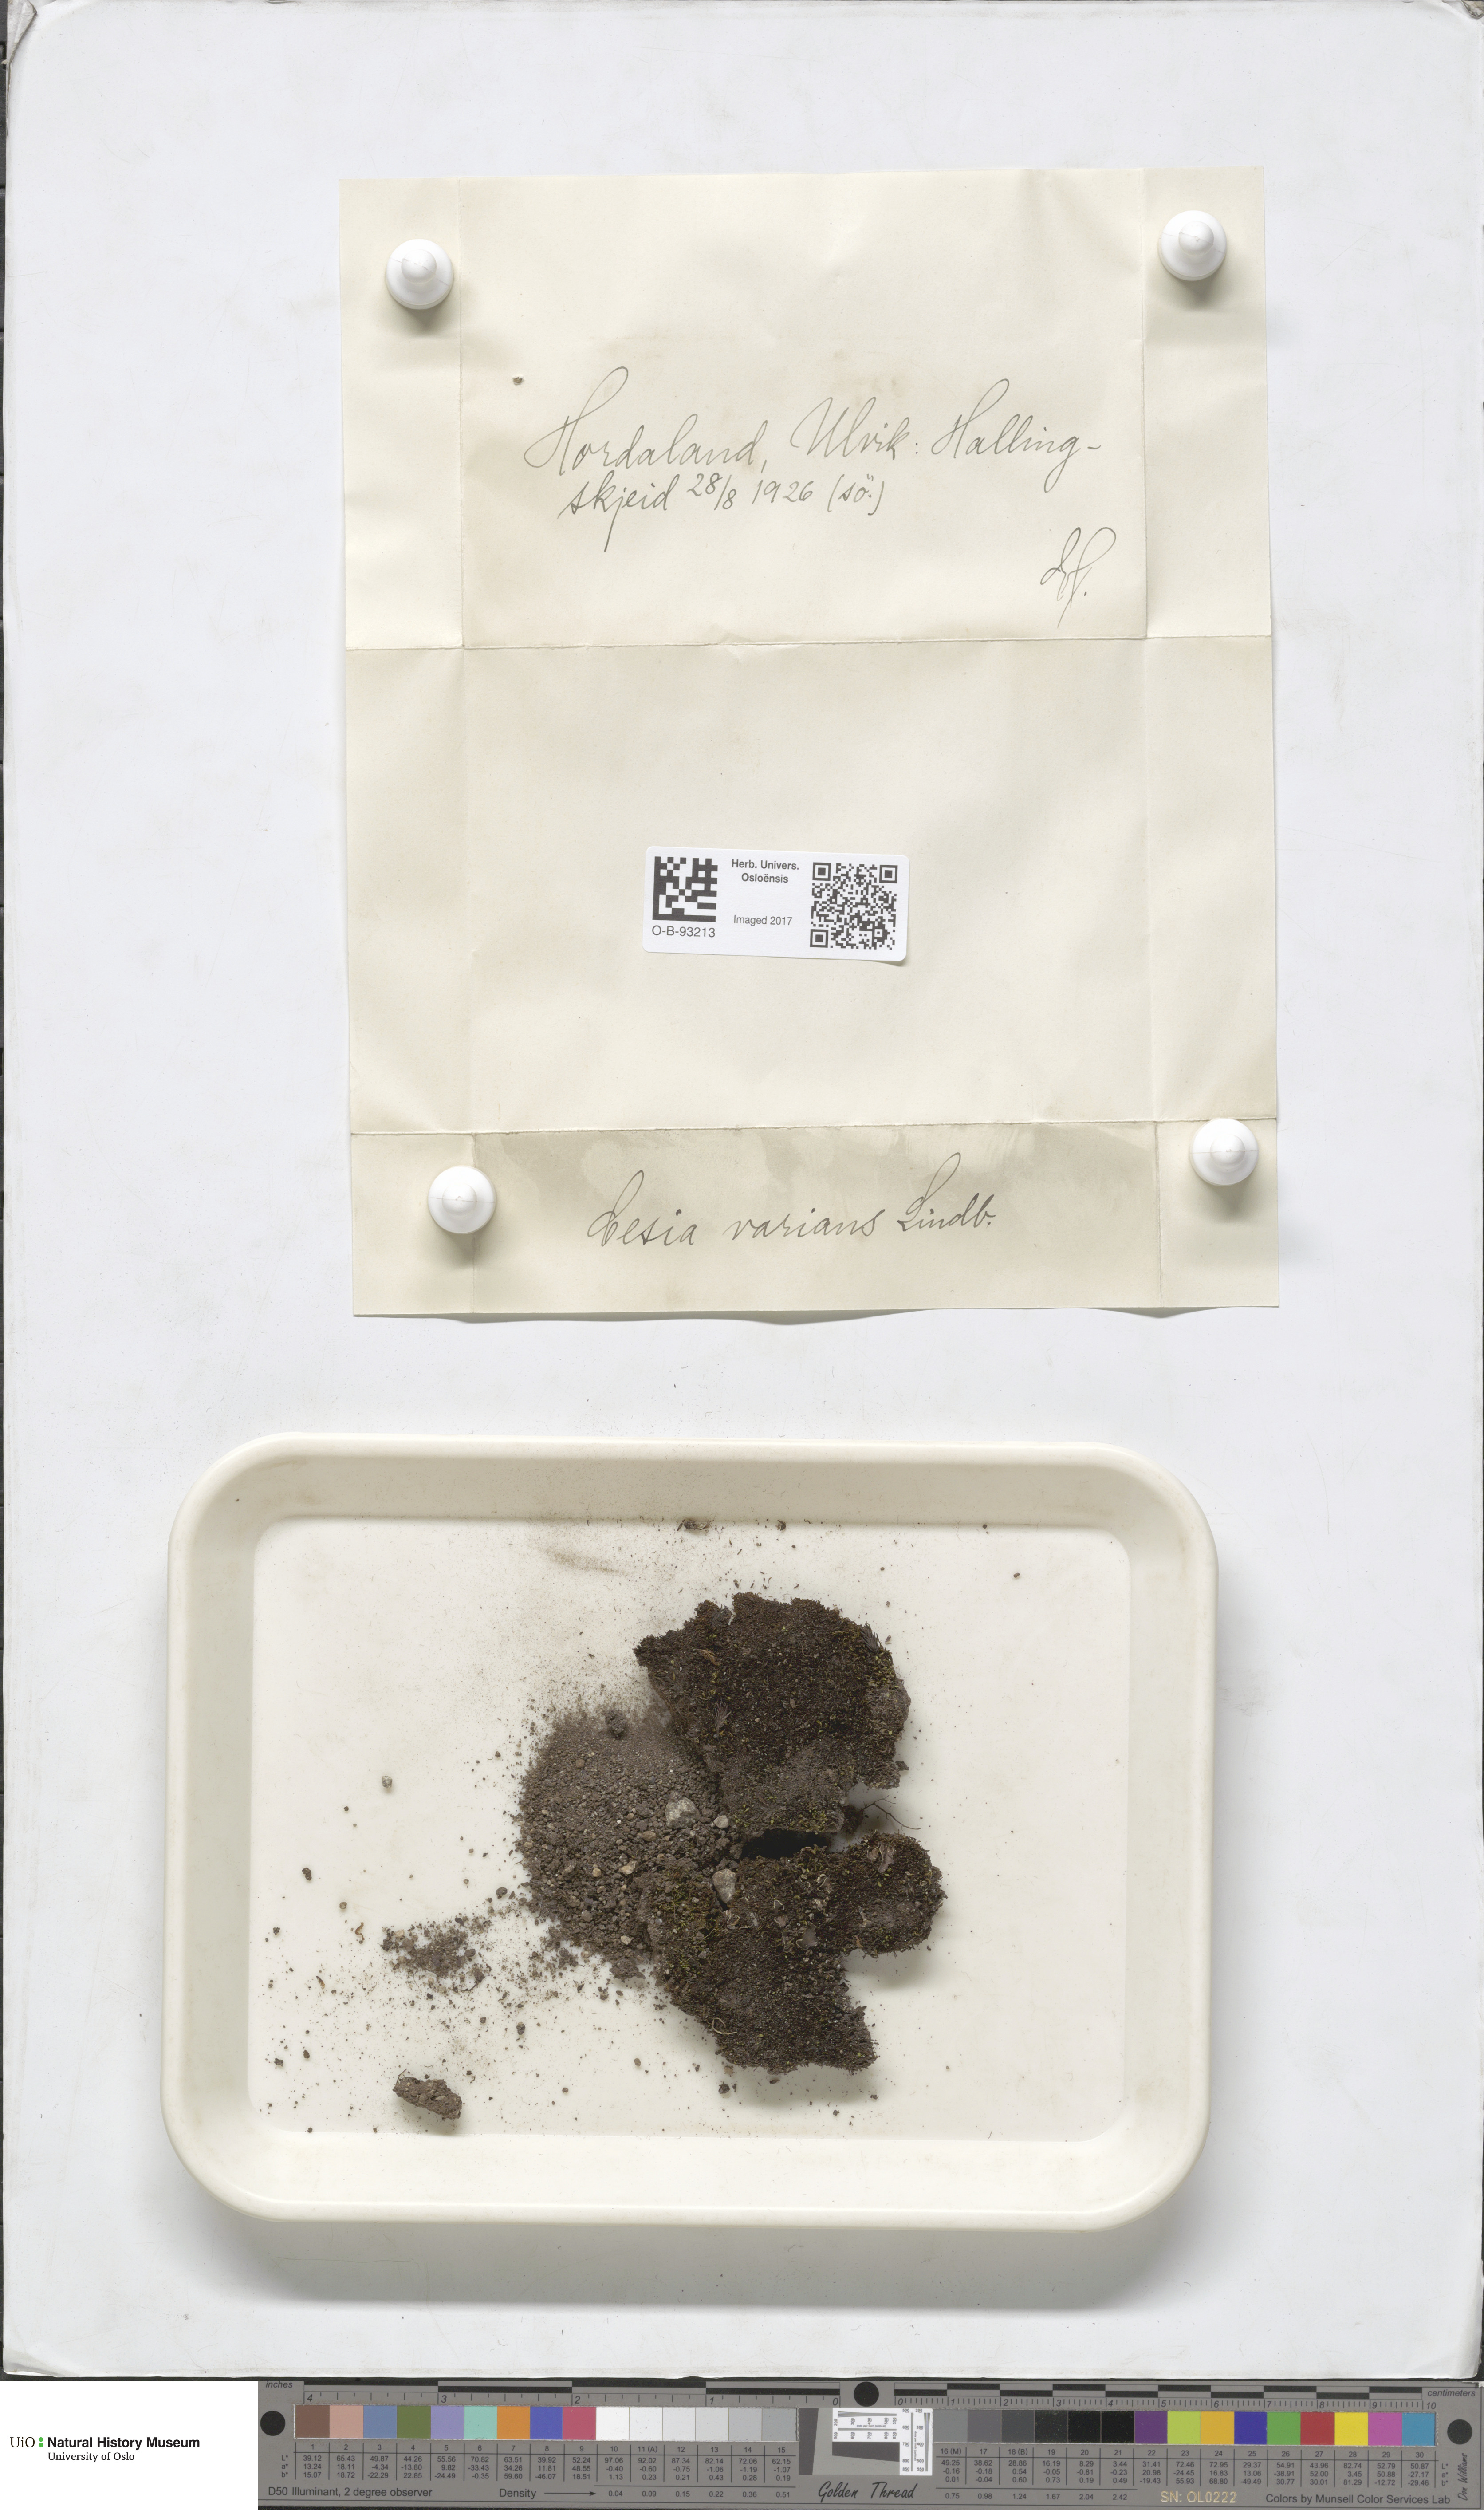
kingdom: Plantae
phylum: Marchantiophyta
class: Jungermanniopsida
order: Jungermanniales
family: Gymnomitriaceae
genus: Gymnomitrion
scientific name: Gymnomitrion brevissimum
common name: Snow rustwort
